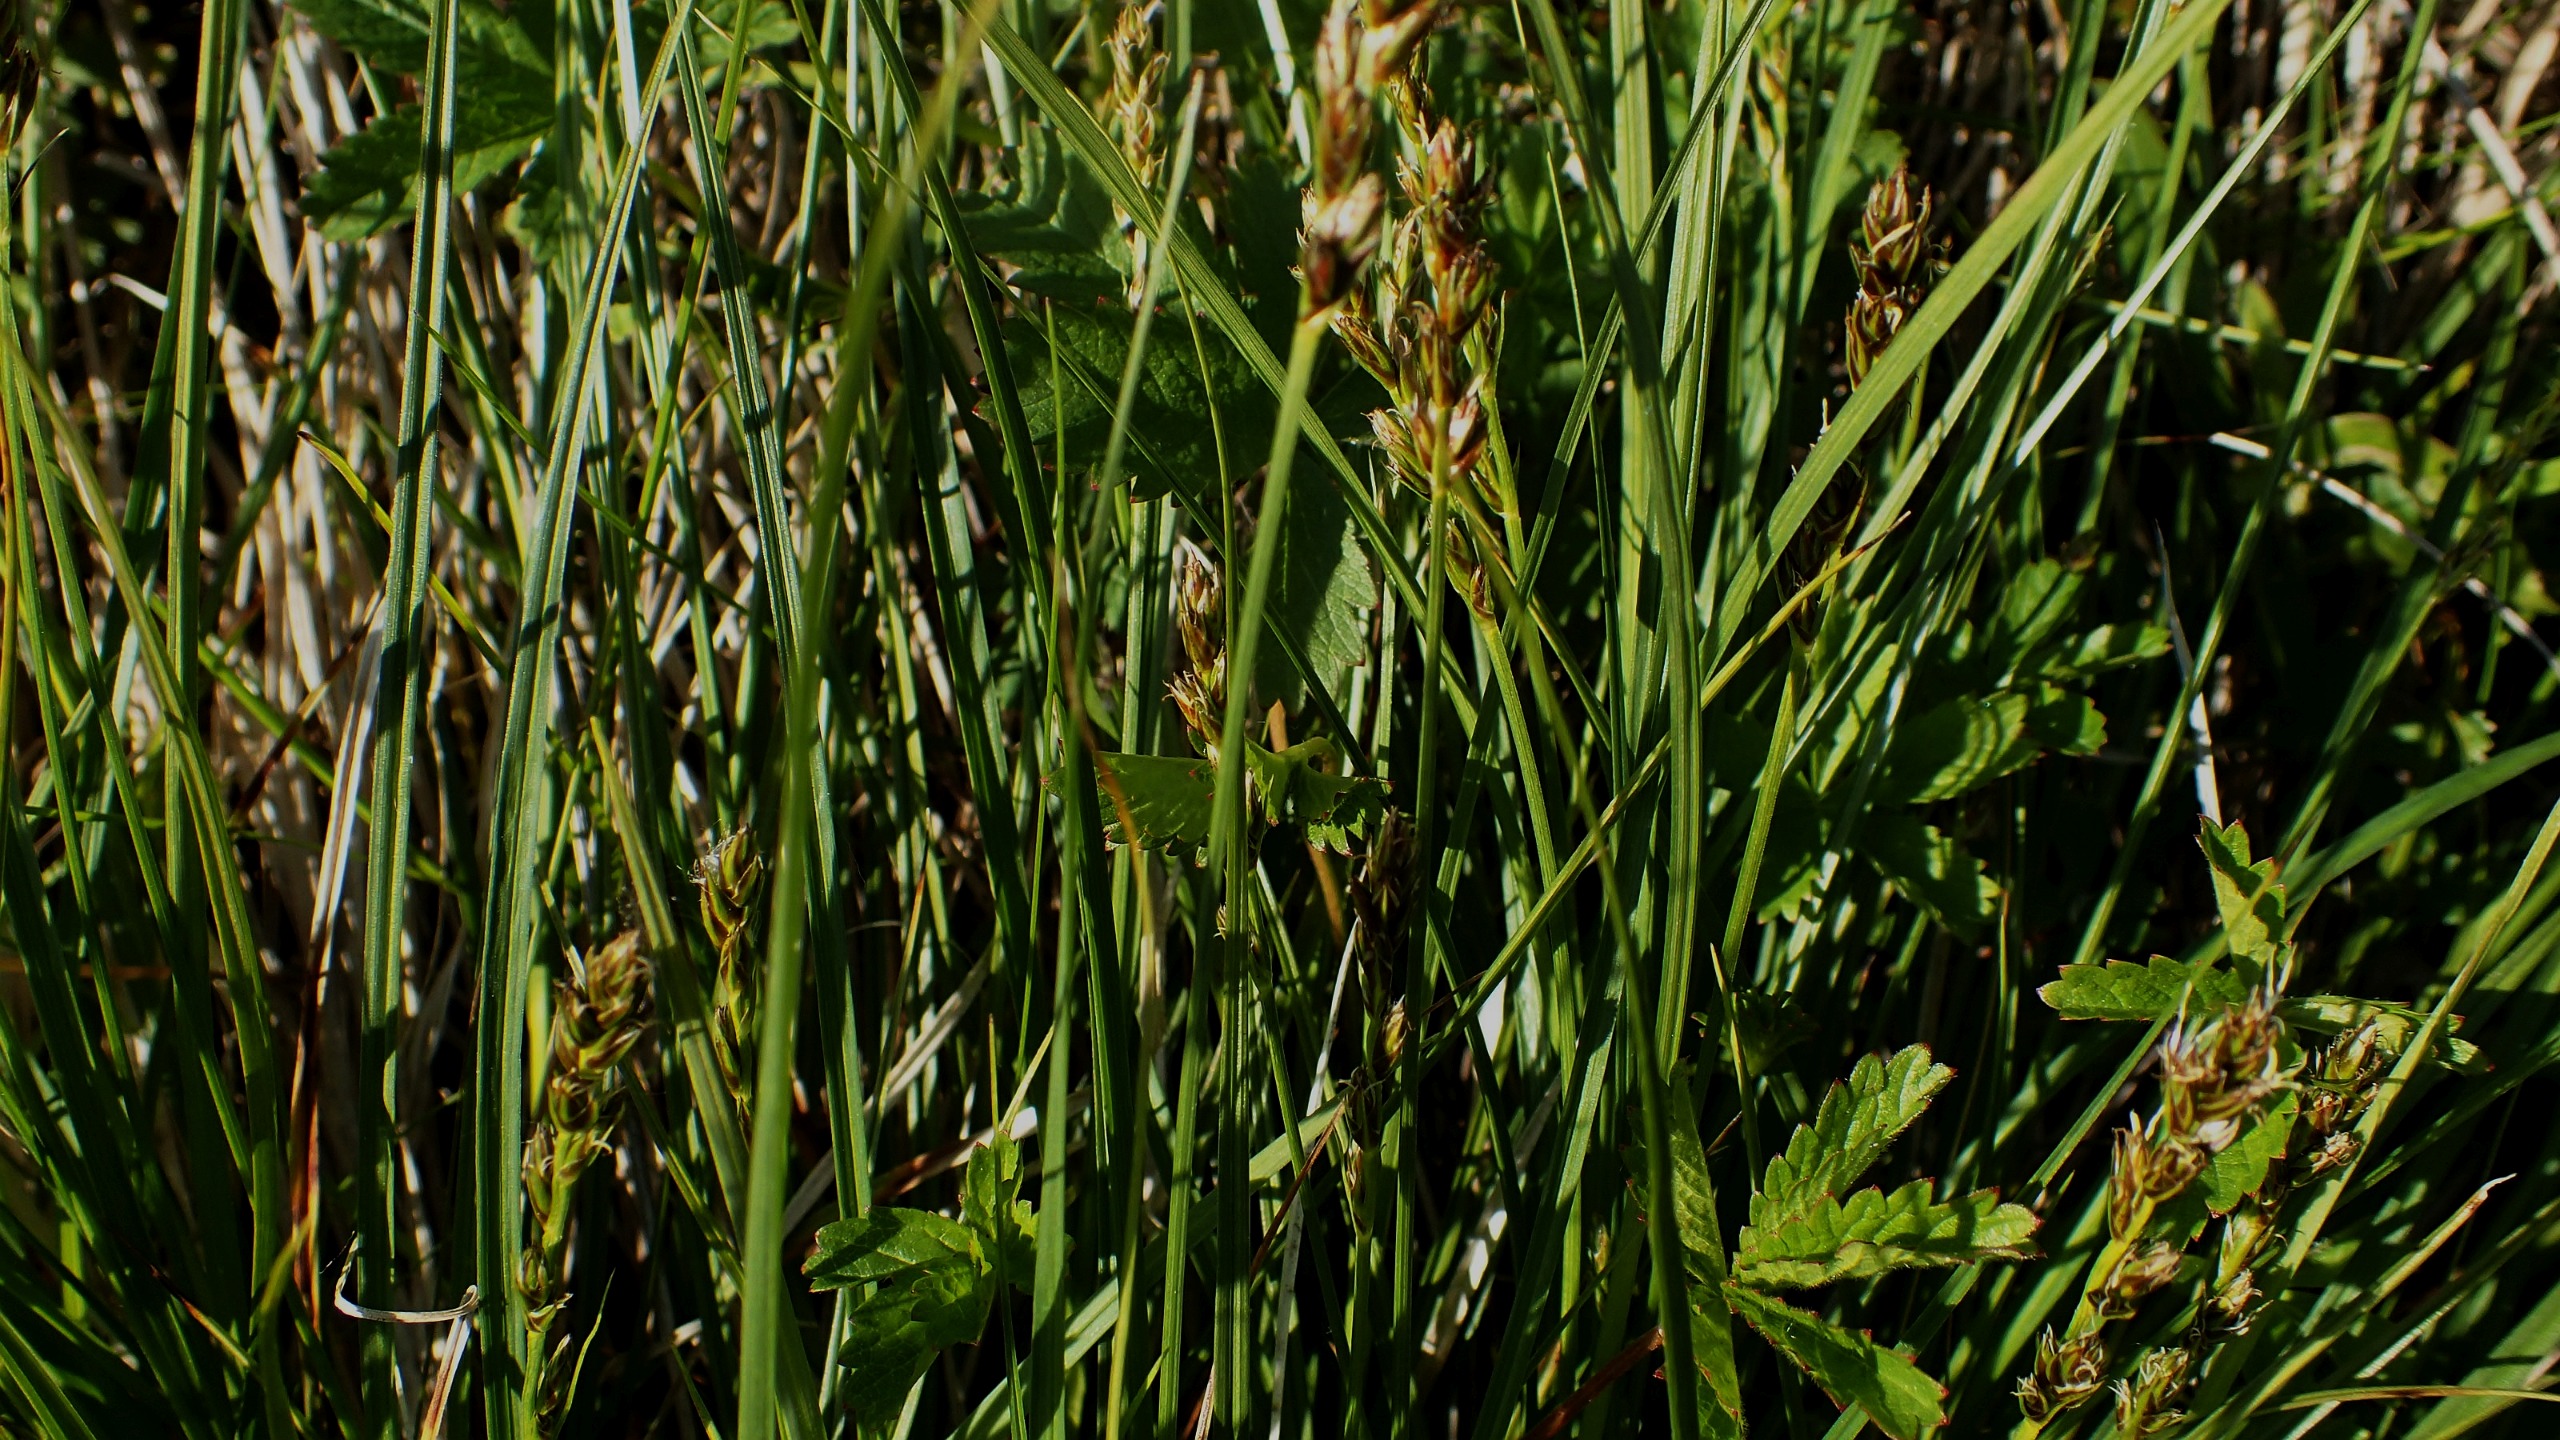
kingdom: Plantae
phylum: Tracheophyta
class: Liliopsida
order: Poales
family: Cyperaceae
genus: Carex
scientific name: Carex
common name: Starslægten
